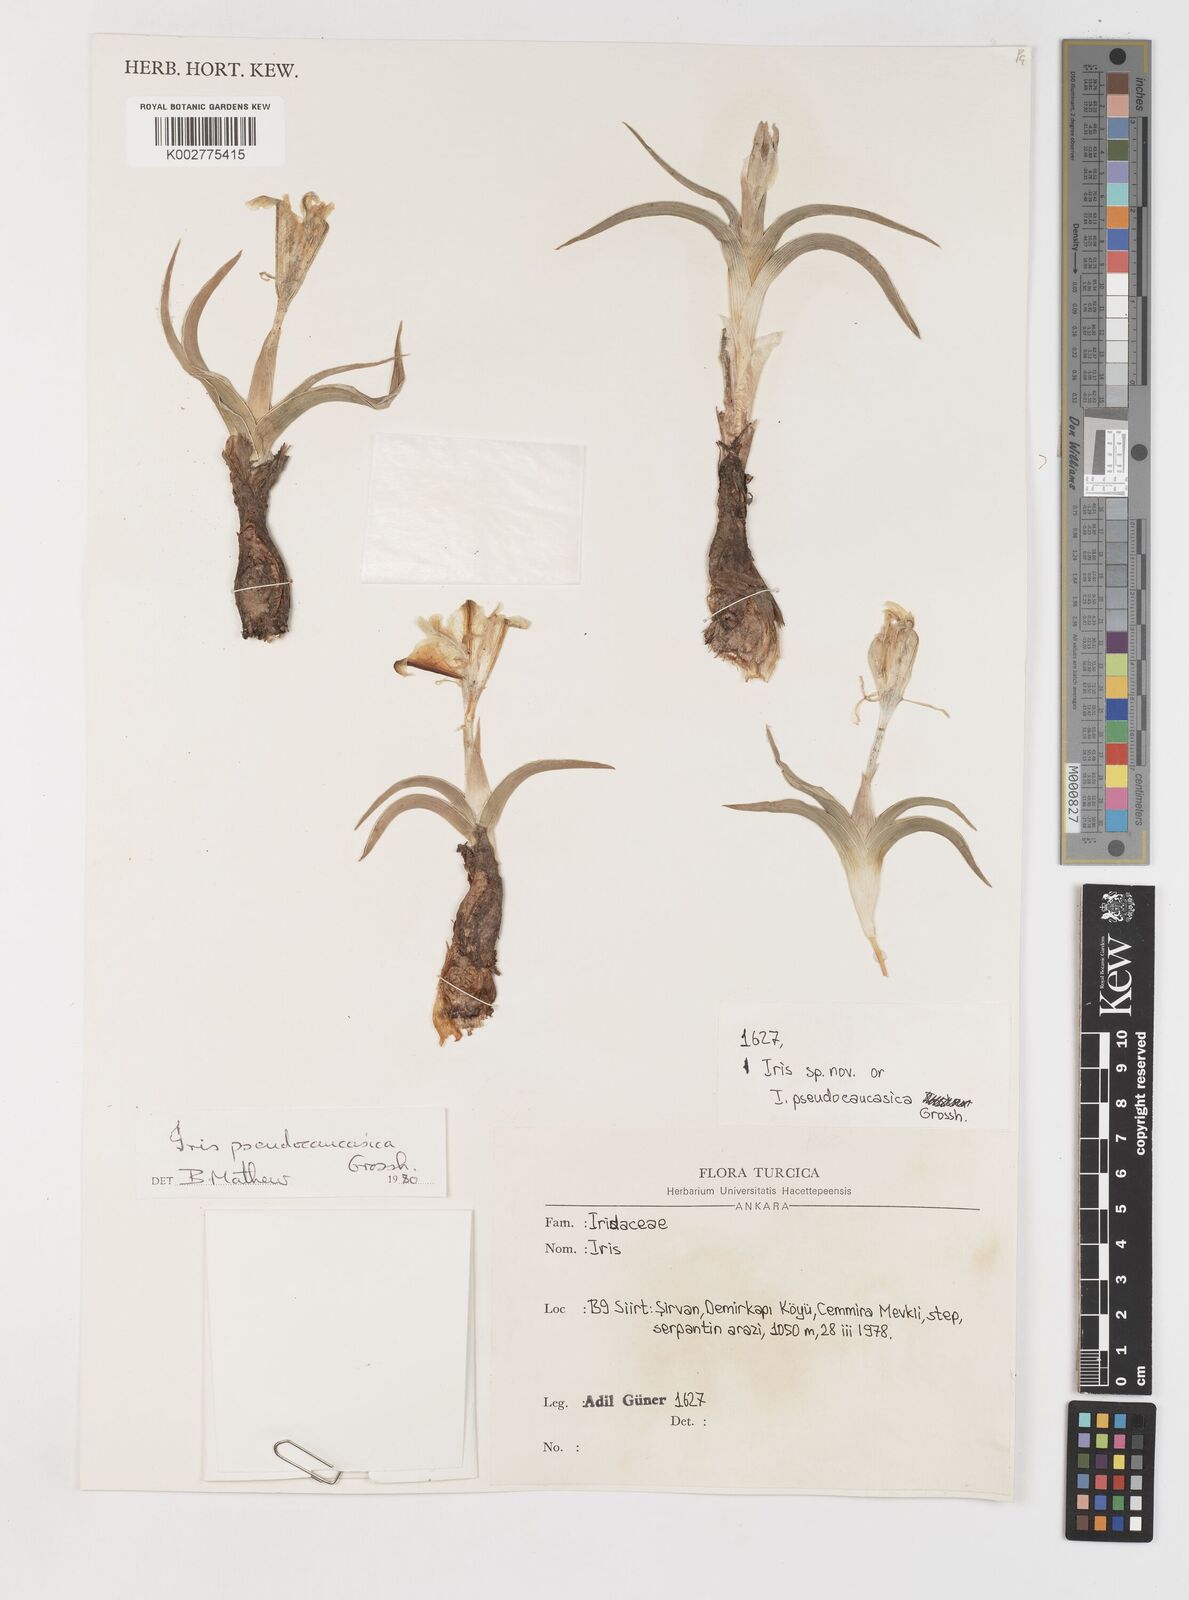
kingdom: Plantae
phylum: Tracheophyta
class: Liliopsida
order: Asparagales
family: Iridaceae
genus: Iris
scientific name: Iris pseudocaucasica
